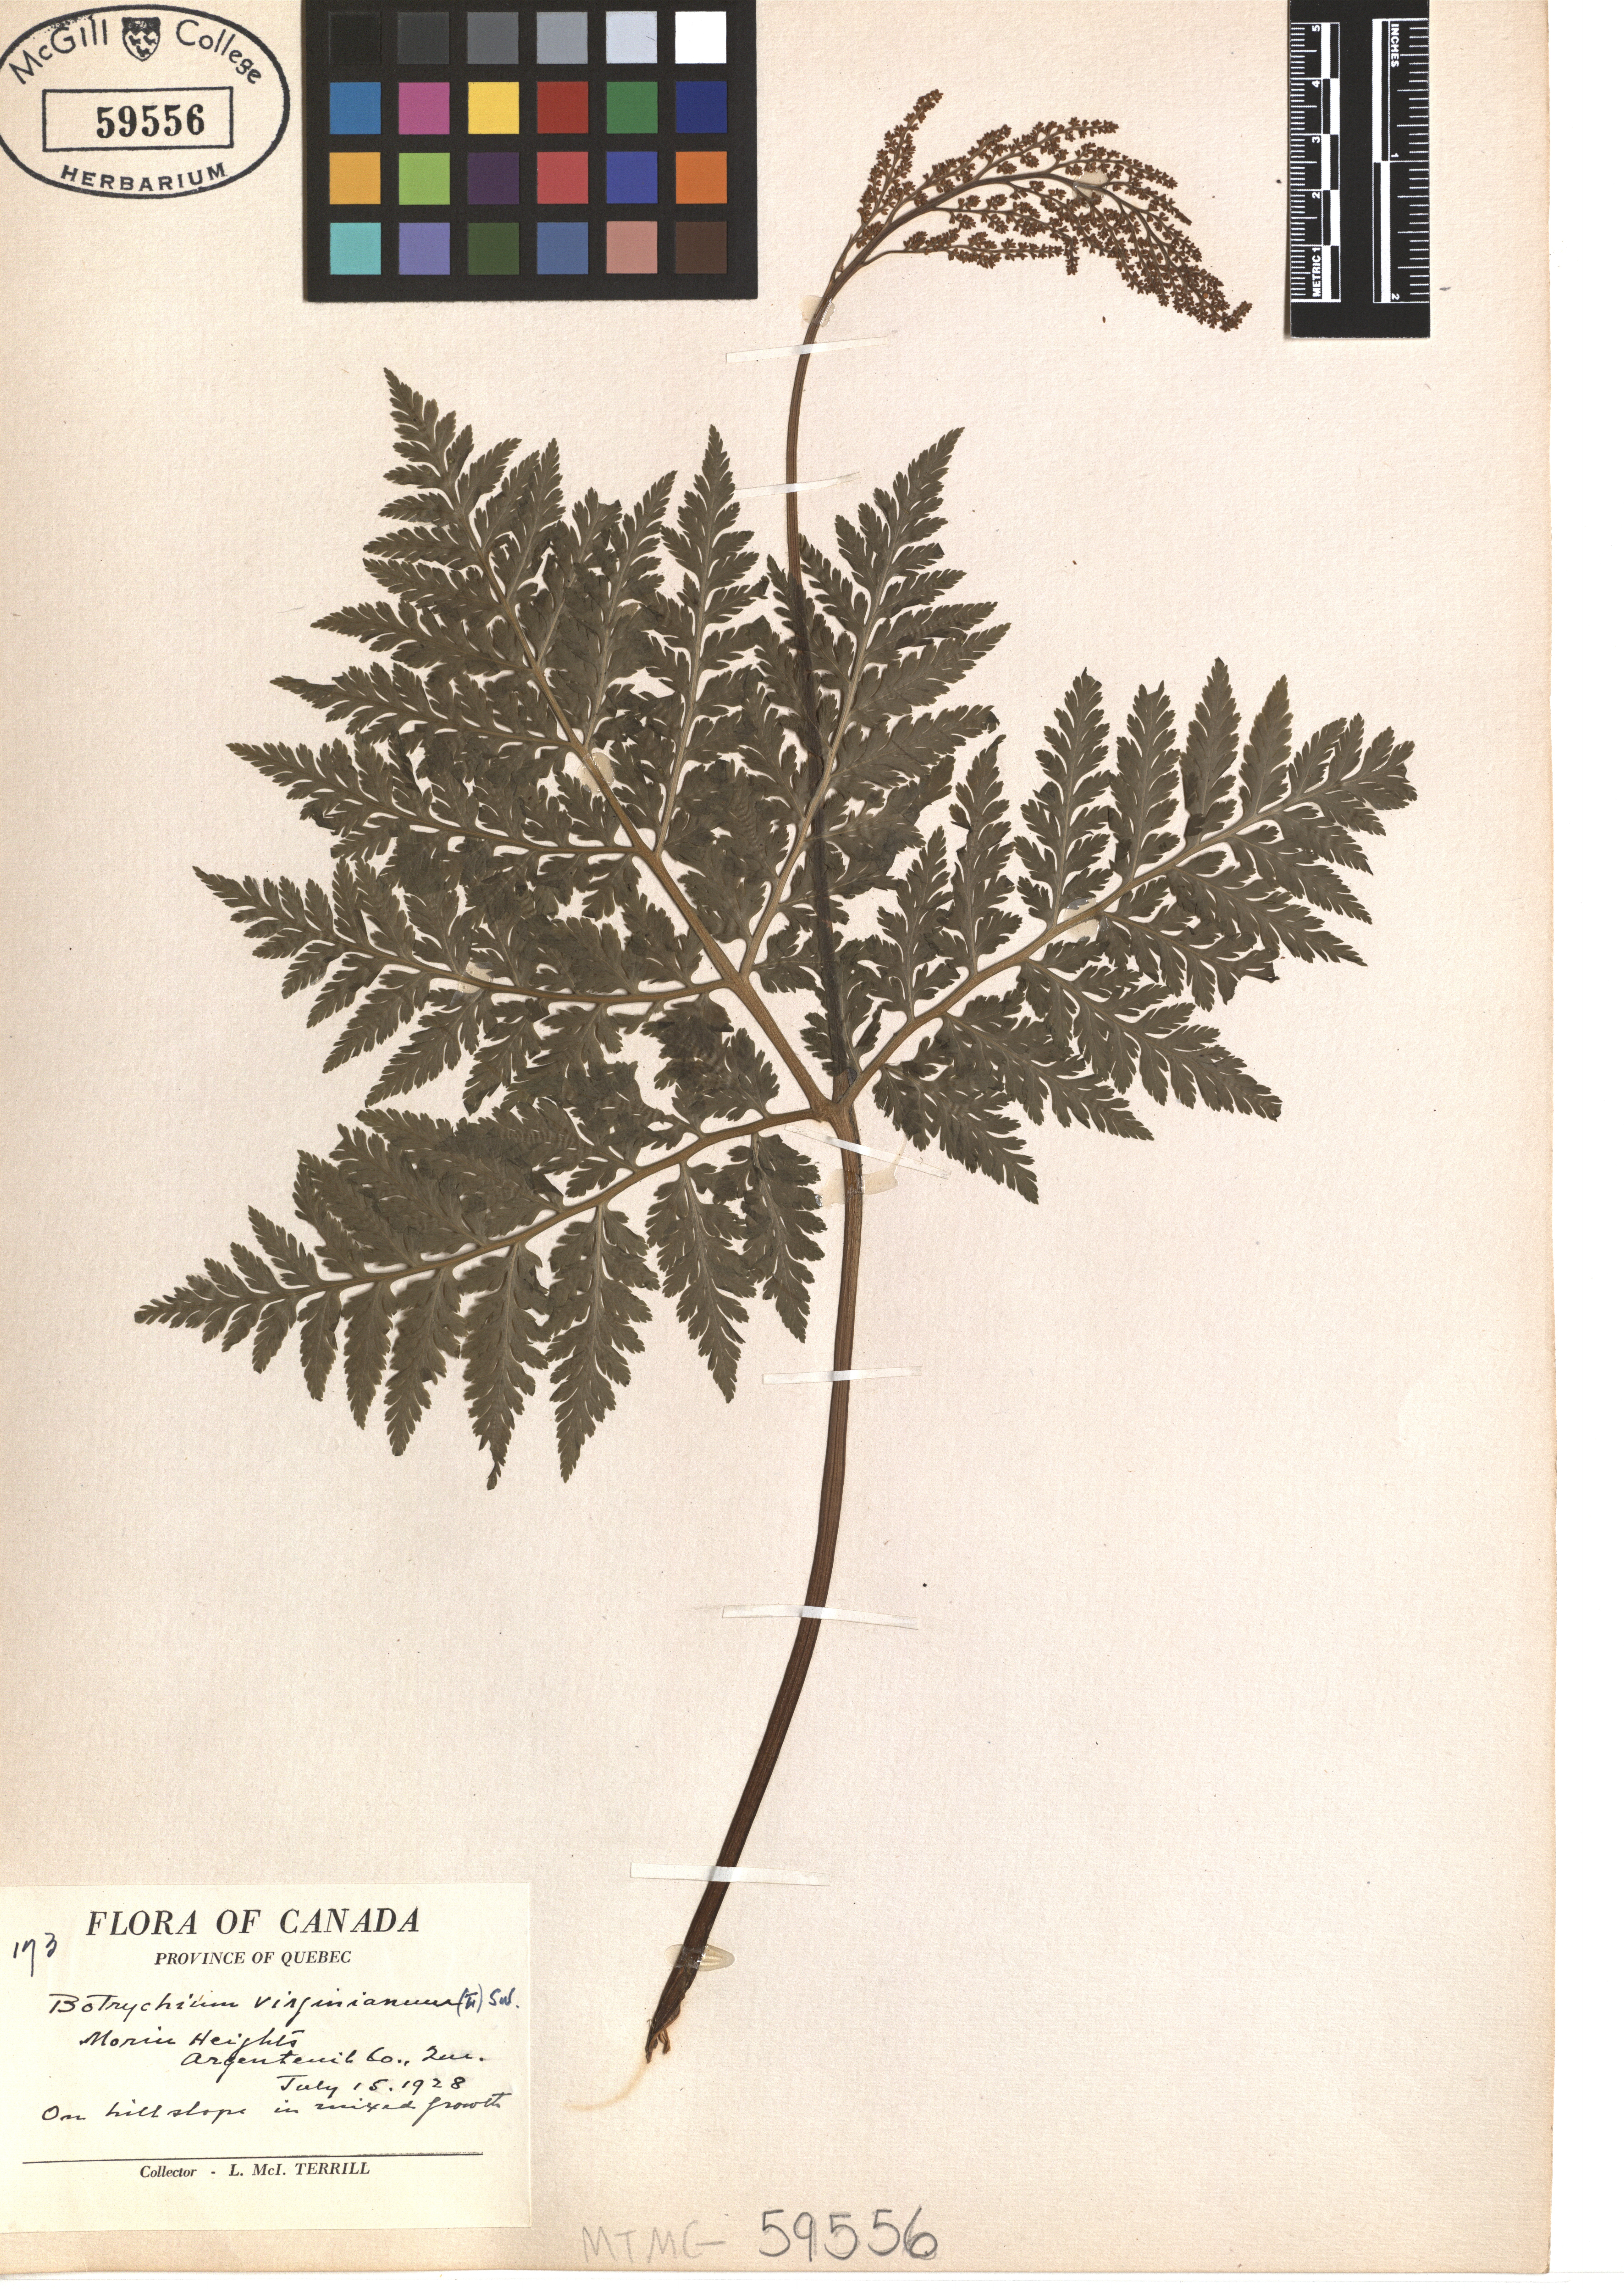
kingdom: Plantae
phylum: Tracheophyta
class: Polypodiopsida
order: Ophioglossales
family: Ophioglossaceae
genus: Botrypus
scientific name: Botrypus virginianus
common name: Common grapefern
